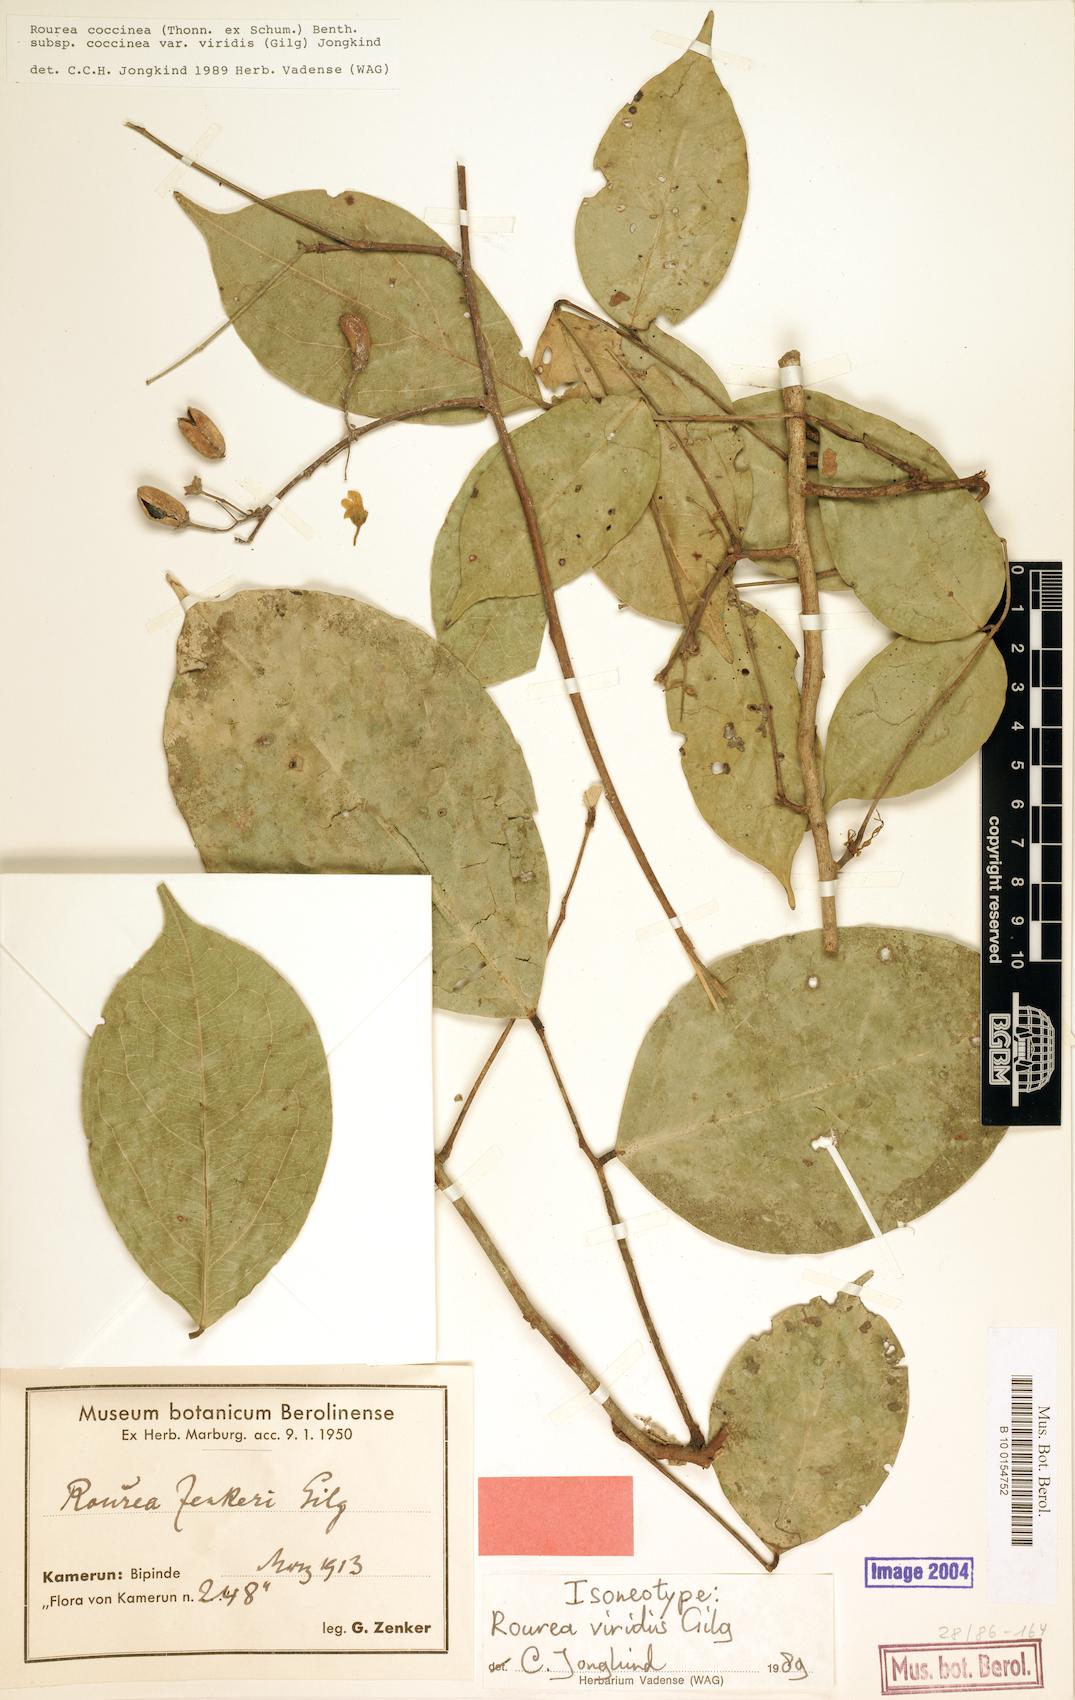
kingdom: Plantae
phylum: Tracheophyta
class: Magnoliopsida
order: Oxalidales
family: Connaraceae
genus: Rourea
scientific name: Rourea coccinea
